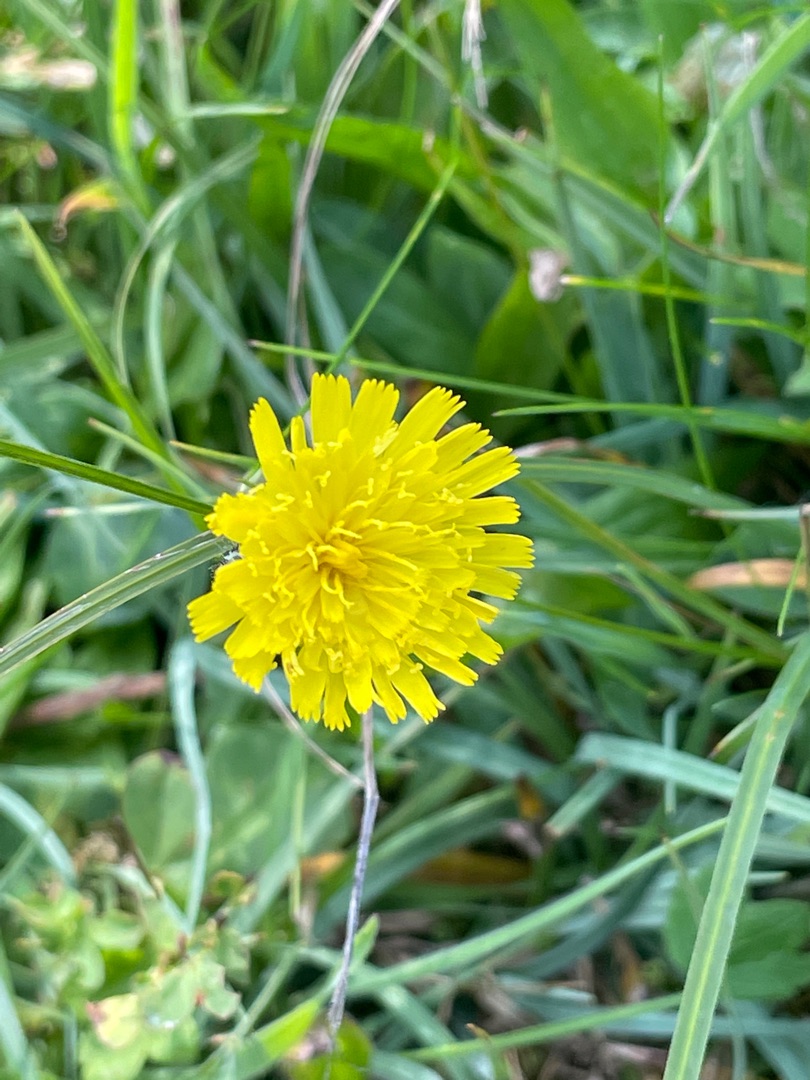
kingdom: Plantae
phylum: Tracheophyta
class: Magnoliopsida
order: Asterales
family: Asteraceae
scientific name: Asteraceae
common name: Kurvblomstfamilien
